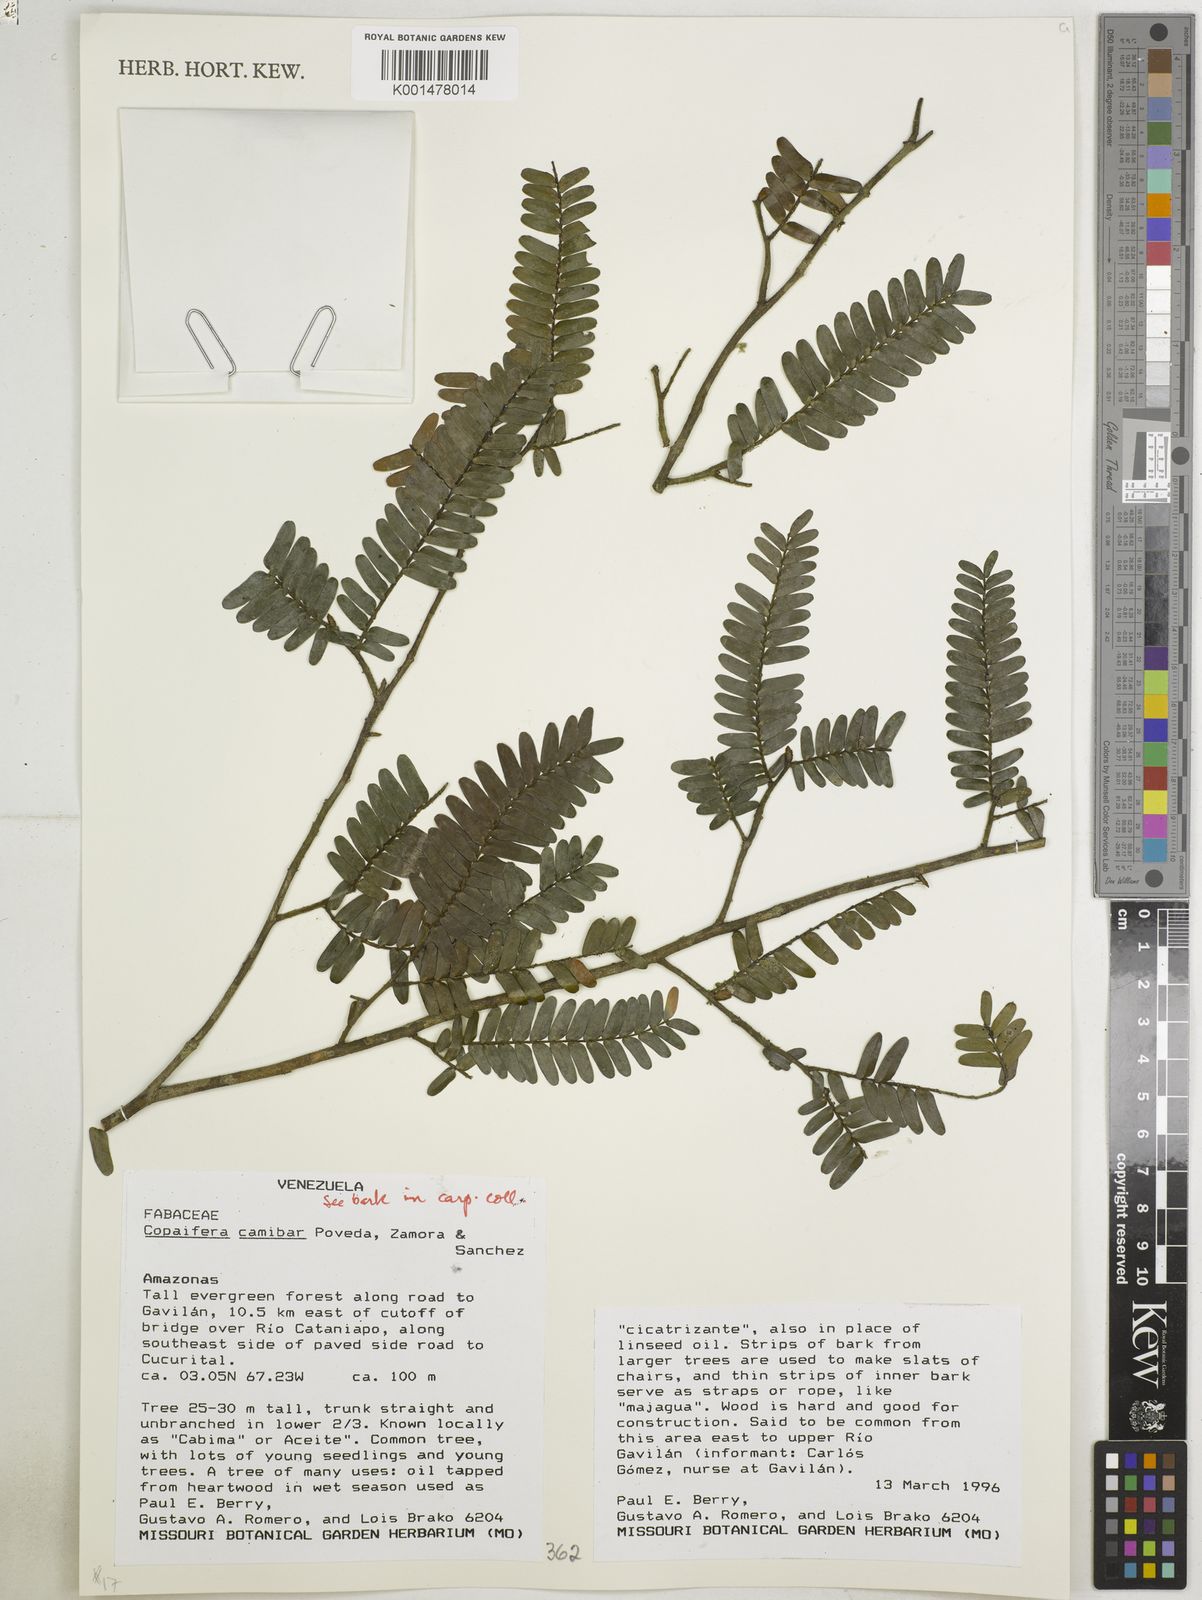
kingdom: Plantae
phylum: Tracheophyta
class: Magnoliopsida
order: Fabales
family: Fabaceae
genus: Copaifera
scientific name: Copaifera camibar
